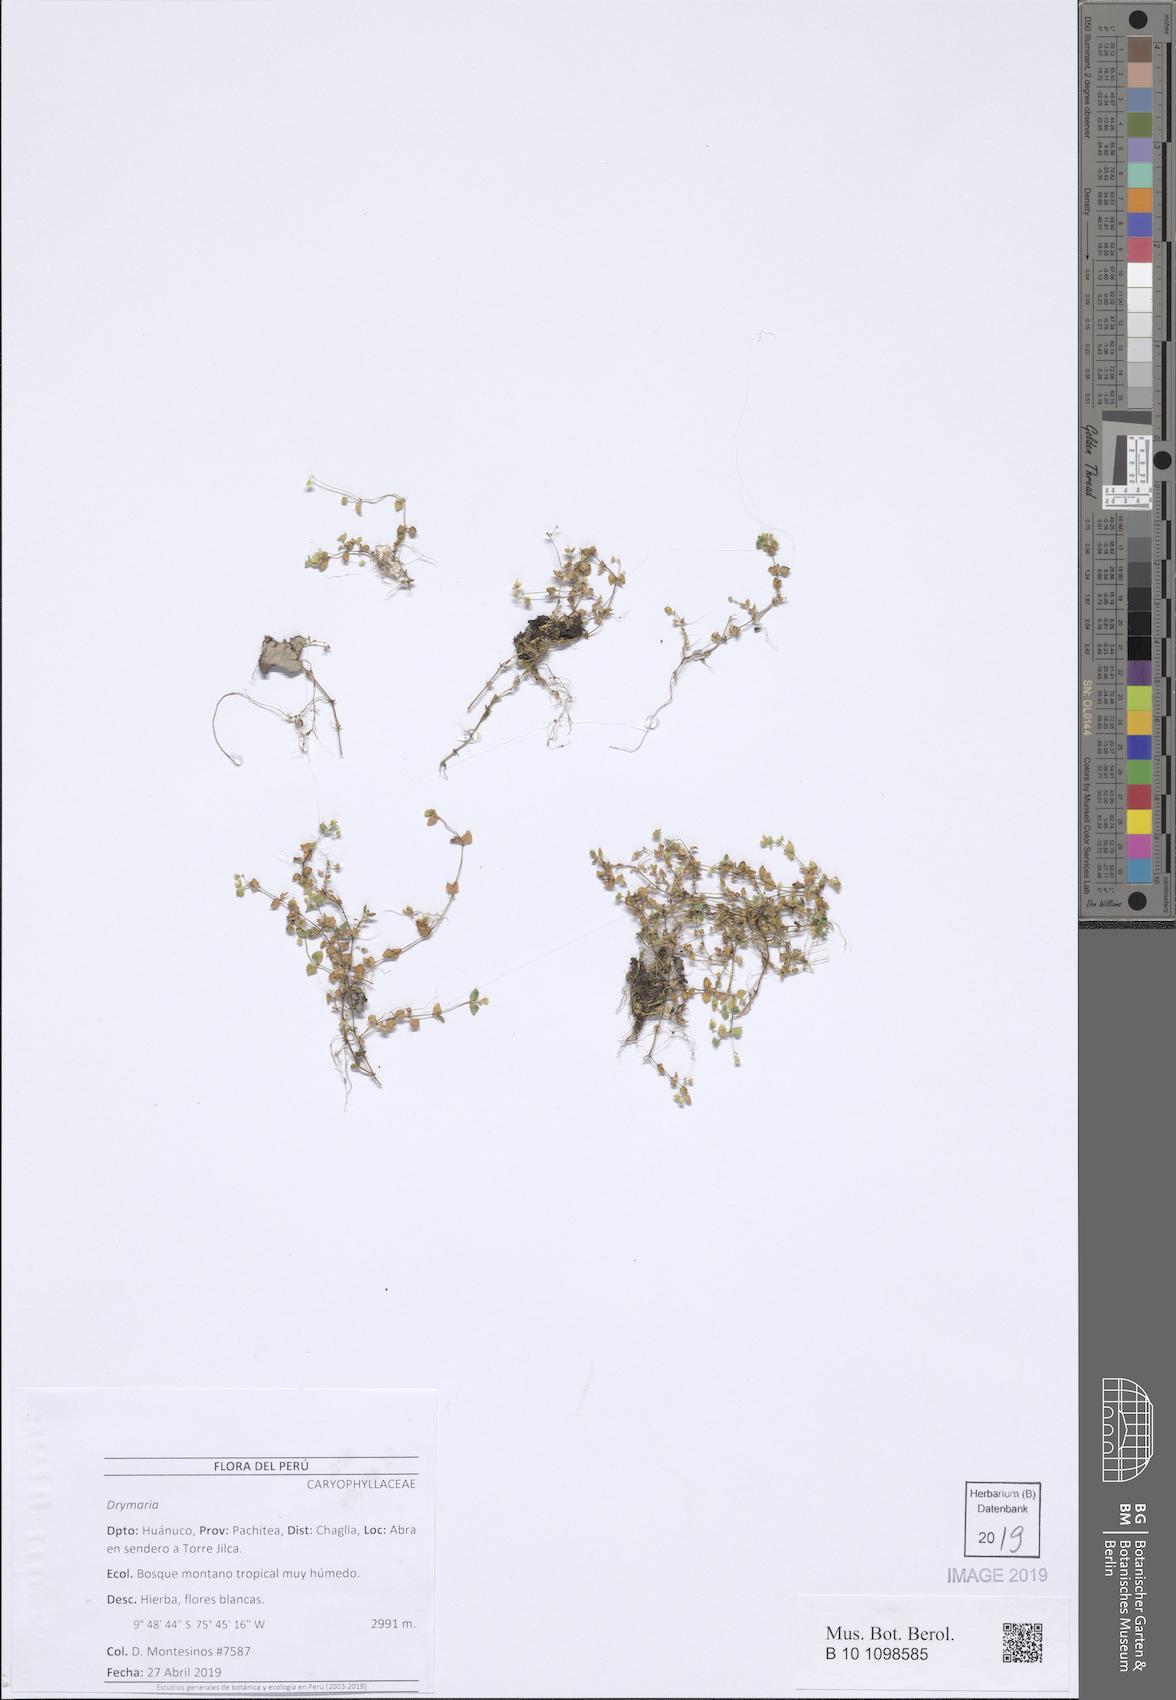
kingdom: Plantae
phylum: Tracheophyta
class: Magnoliopsida
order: Caryophyllales
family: Caryophyllaceae
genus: Drymaria
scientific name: Drymaria
